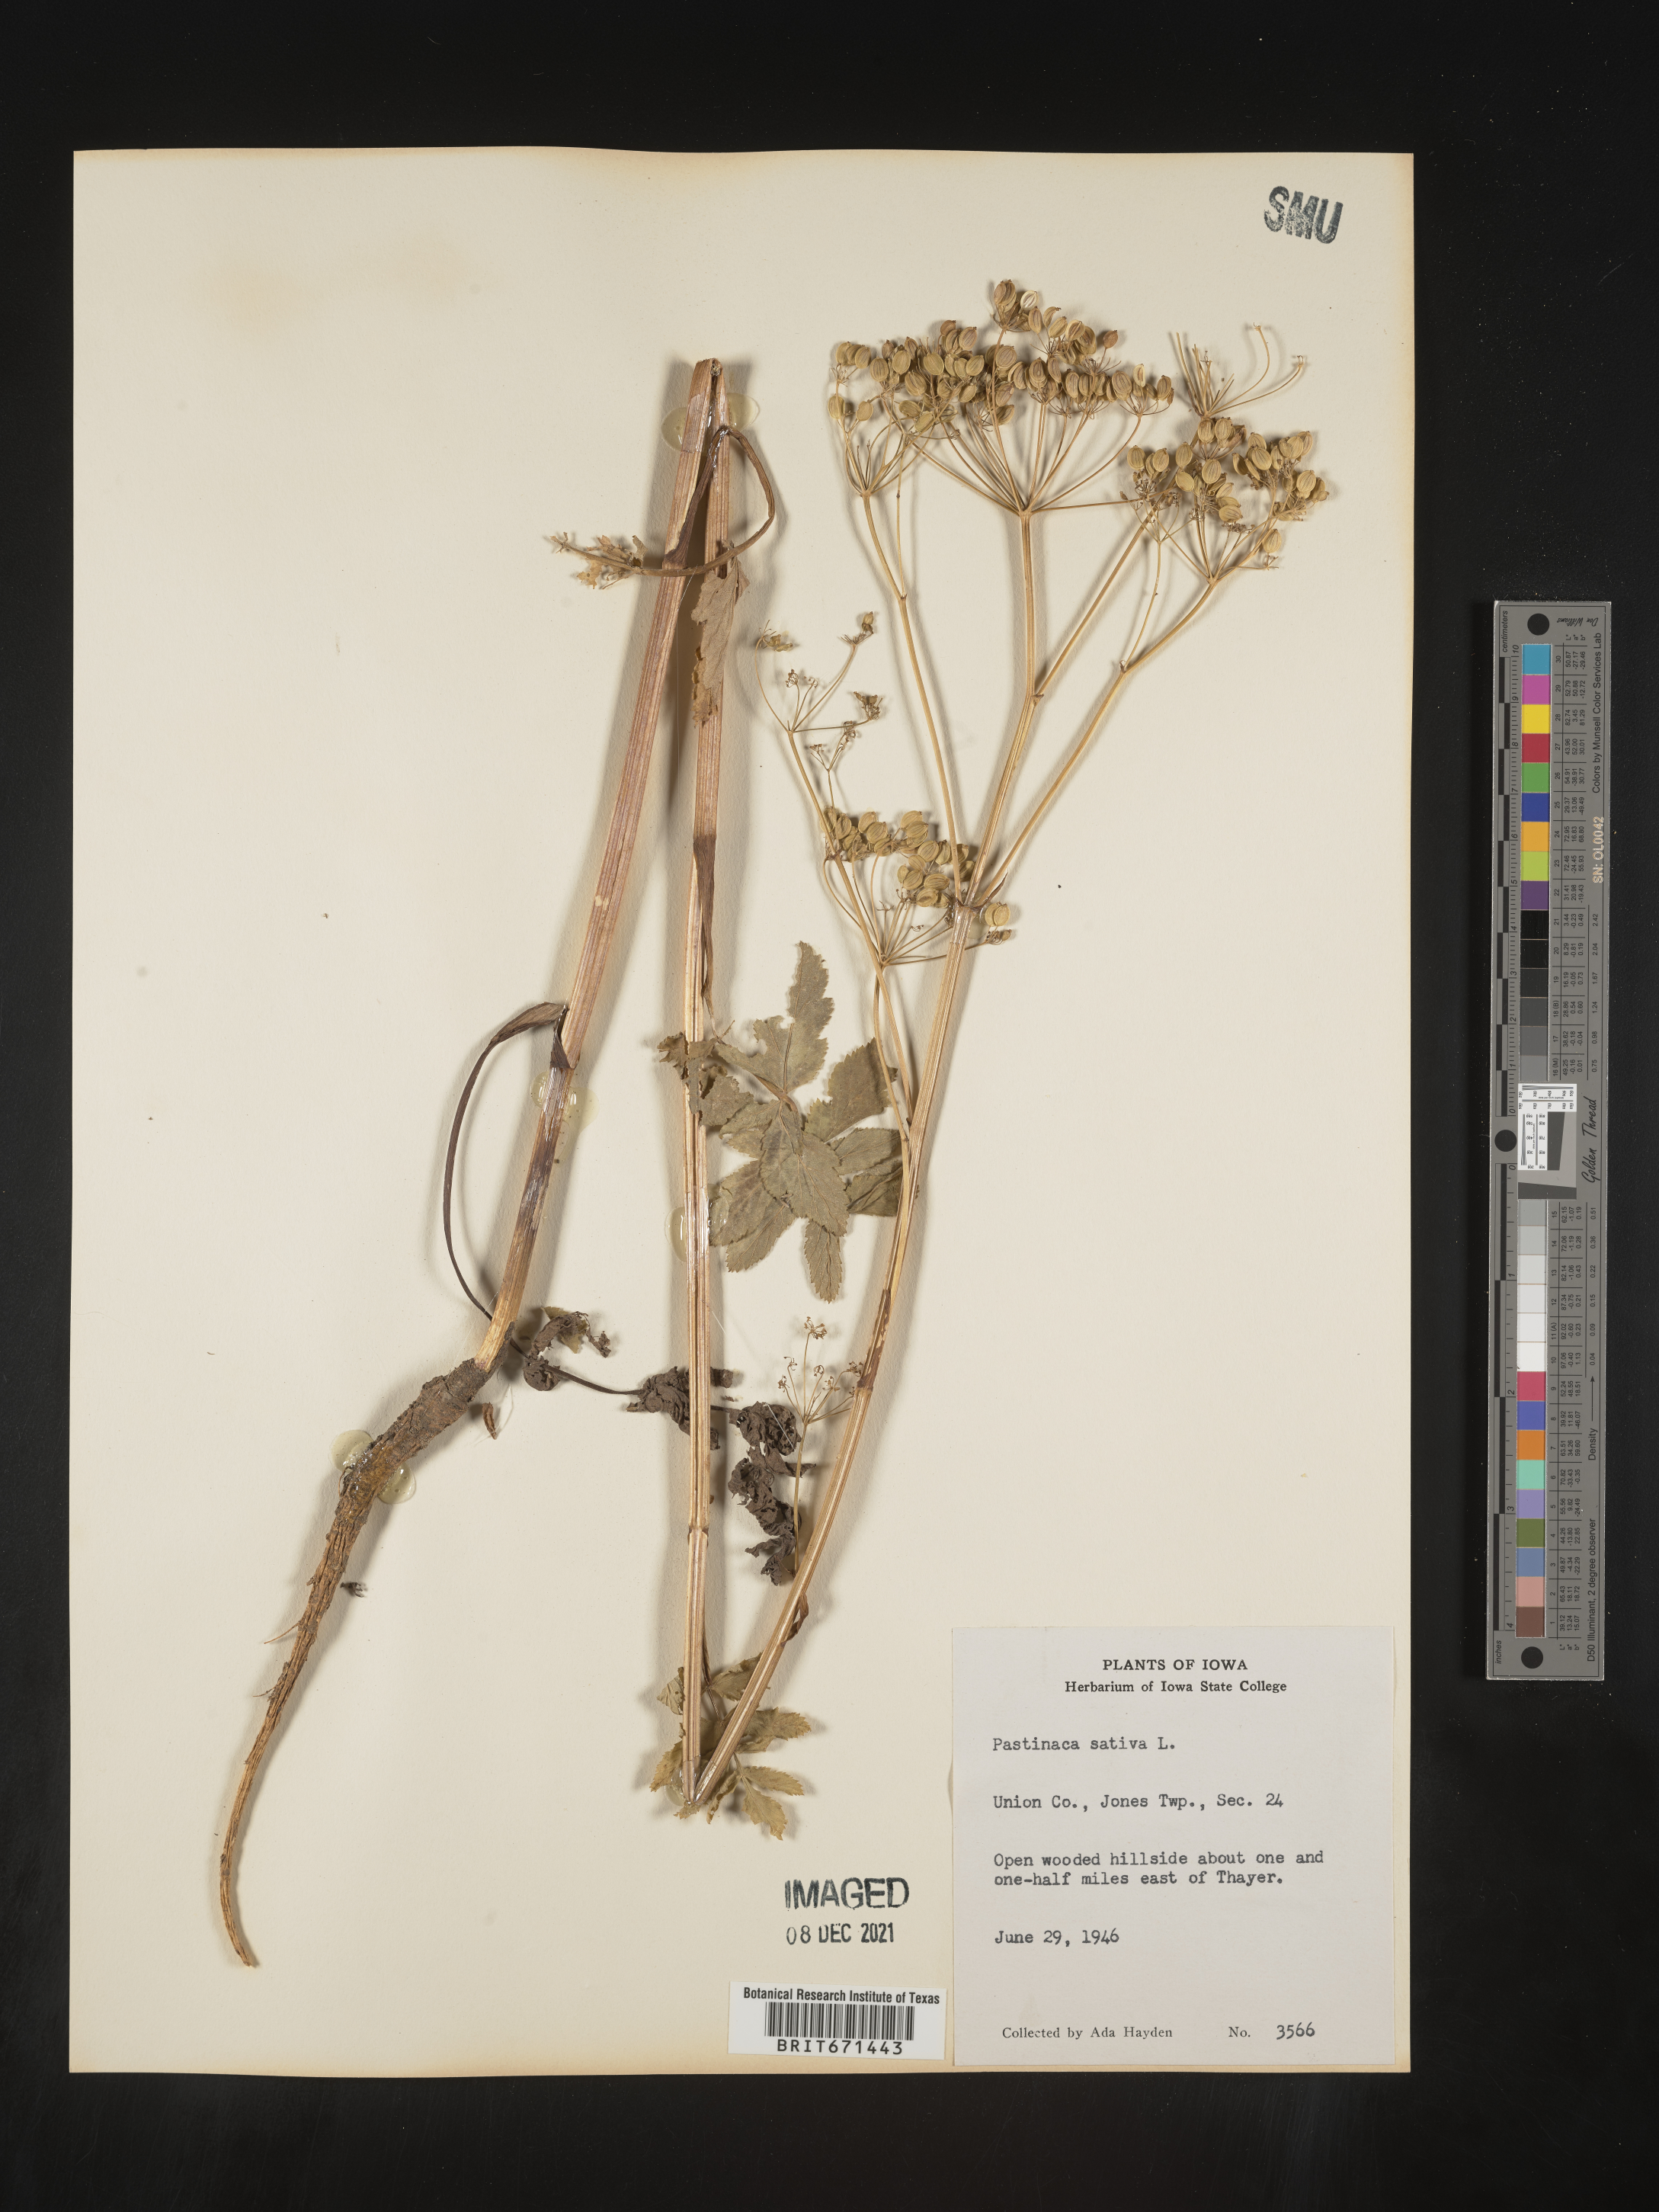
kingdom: Plantae
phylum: Tracheophyta
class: Magnoliopsida
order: Apiales
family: Apiaceae
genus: Pastinaca
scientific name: Pastinaca
